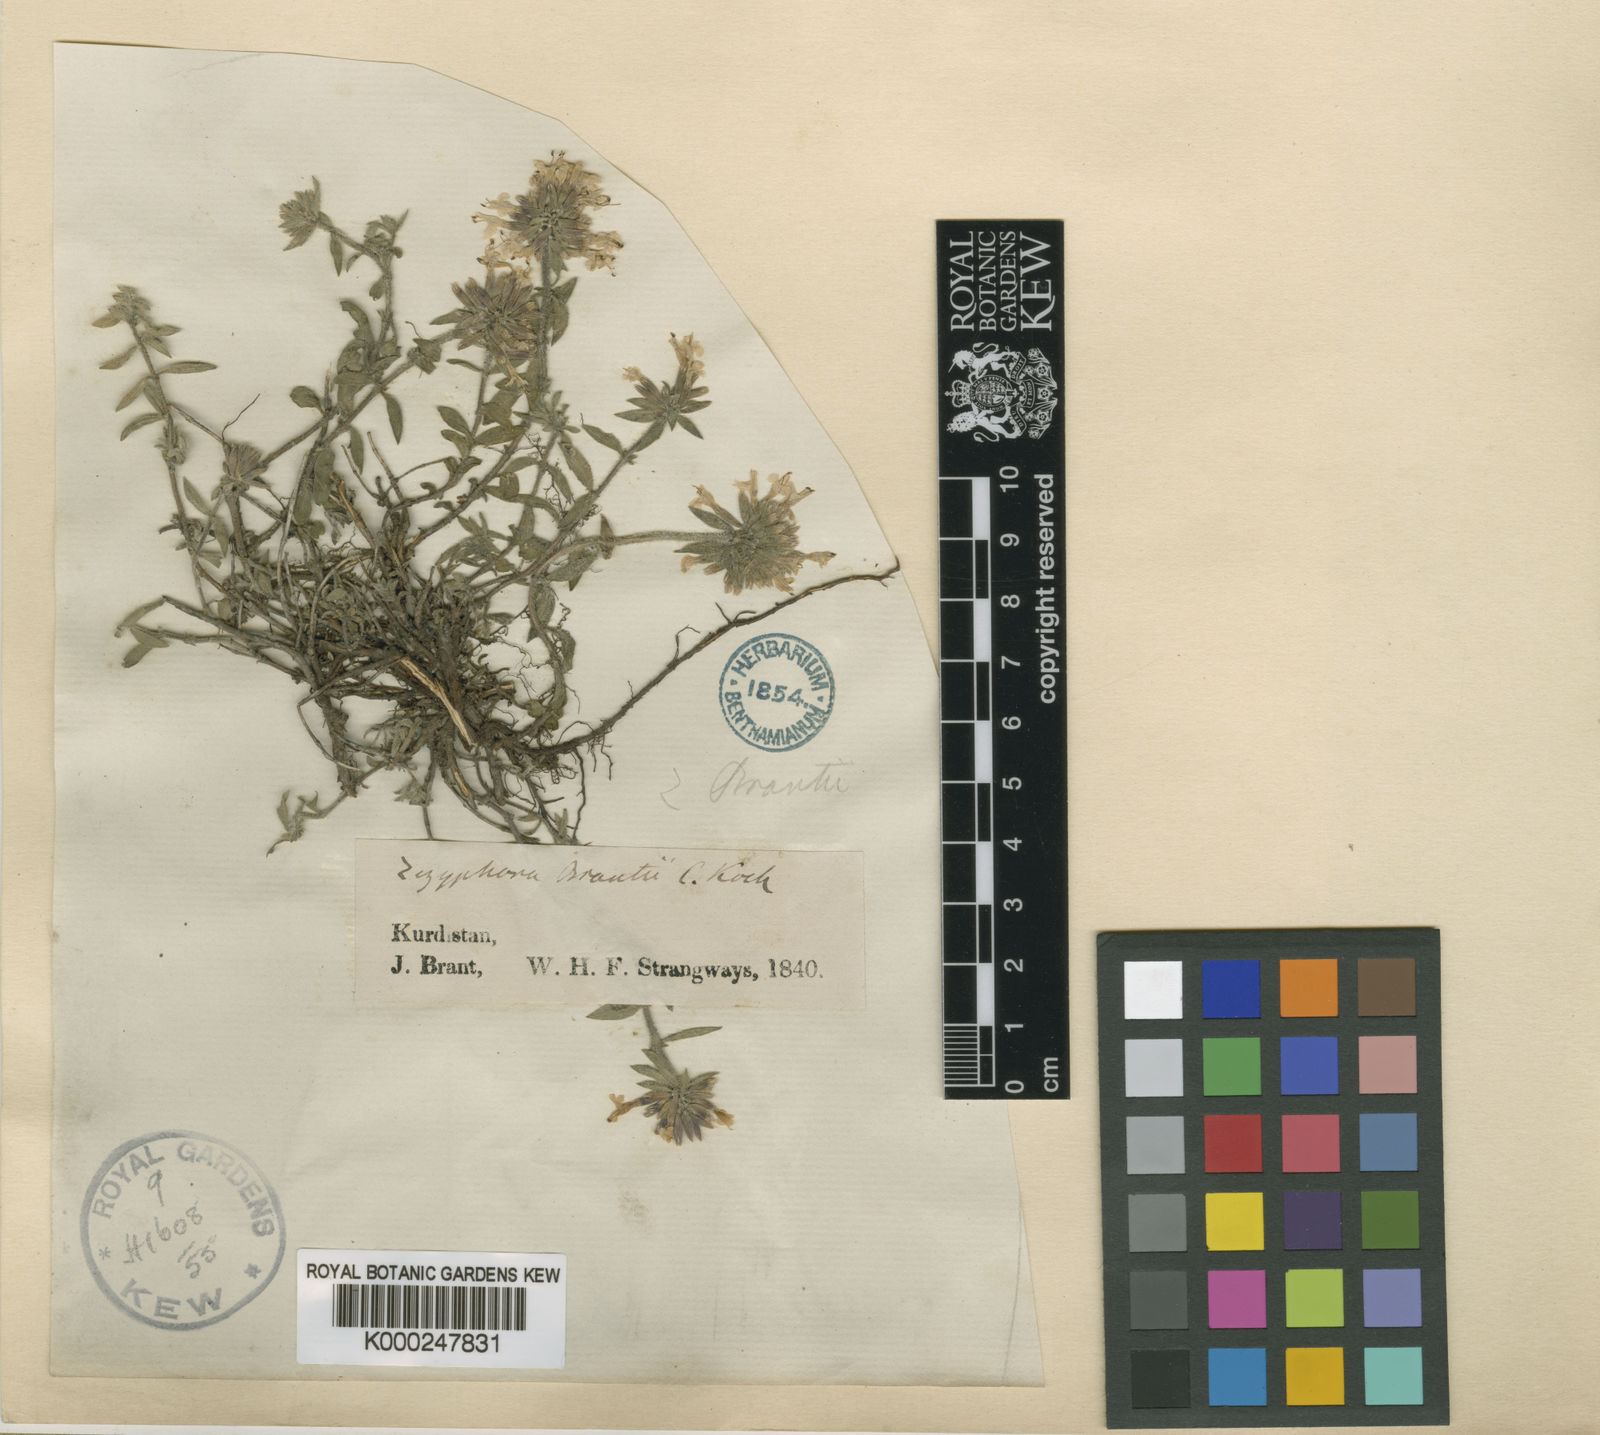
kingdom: Plantae
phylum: Tracheophyta
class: Magnoliopsida
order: Lamiales
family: Lamiaceae
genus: Ziziphora
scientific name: Ziziphora brantii
